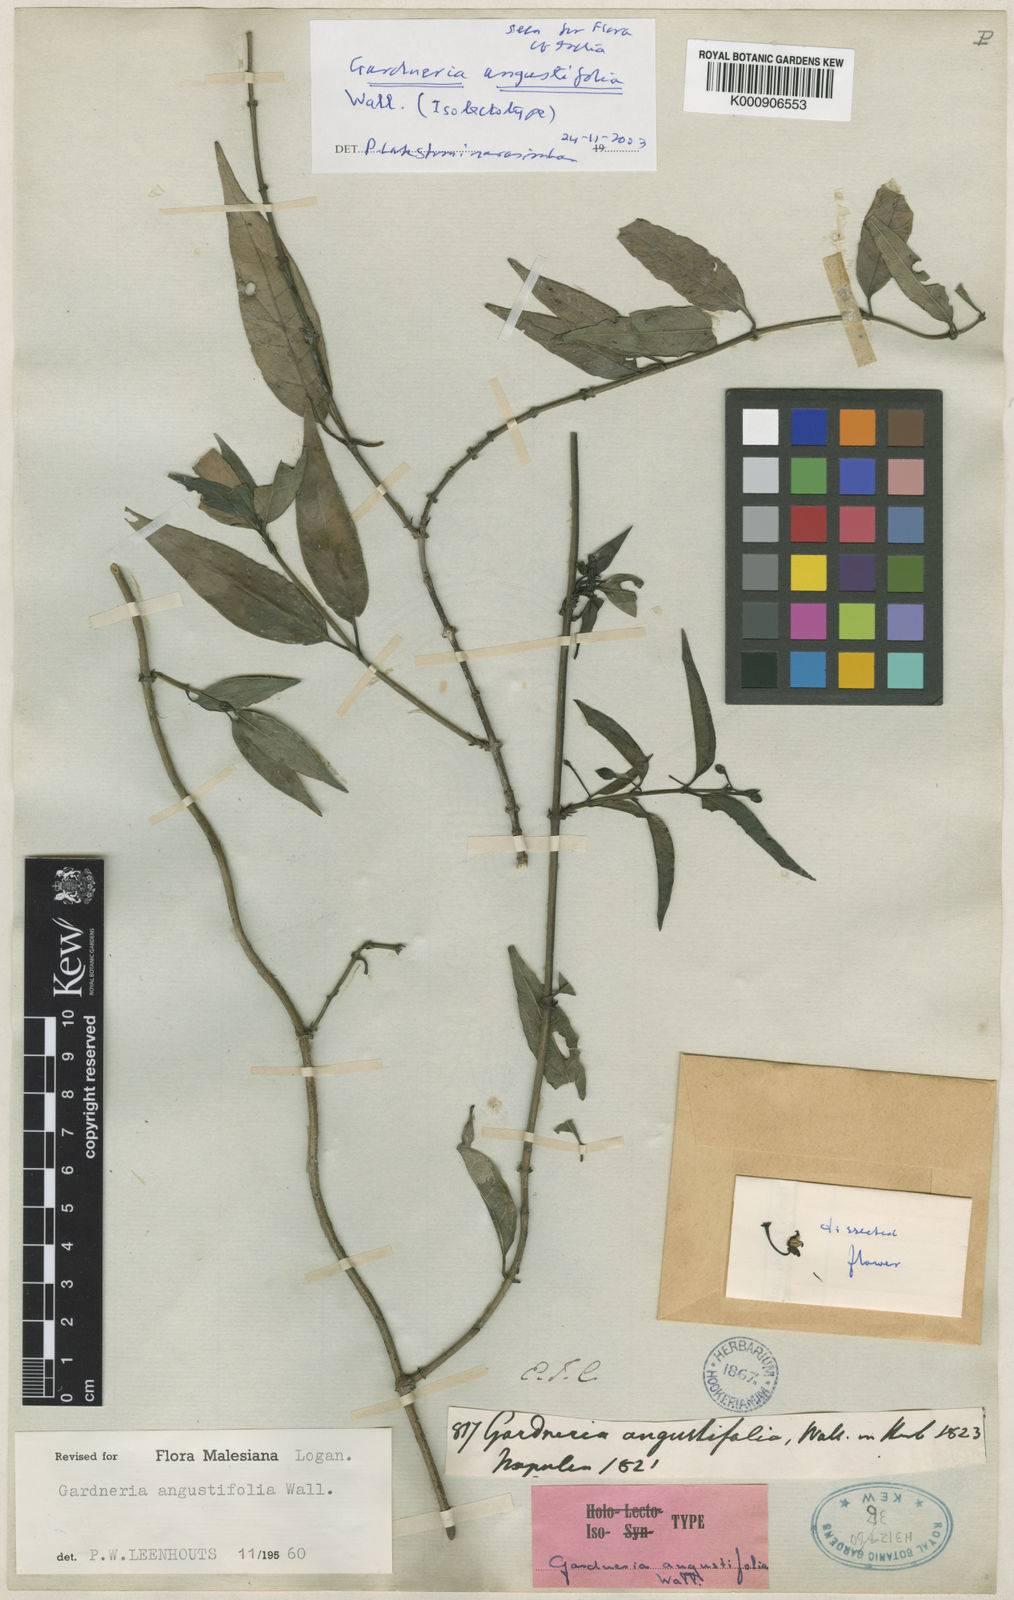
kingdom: Plantae
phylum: Tracheophyta
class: Magnoliopsida
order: Gentianales
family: Loganiaceae
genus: Gardneria
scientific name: Gardneria angustifolia
